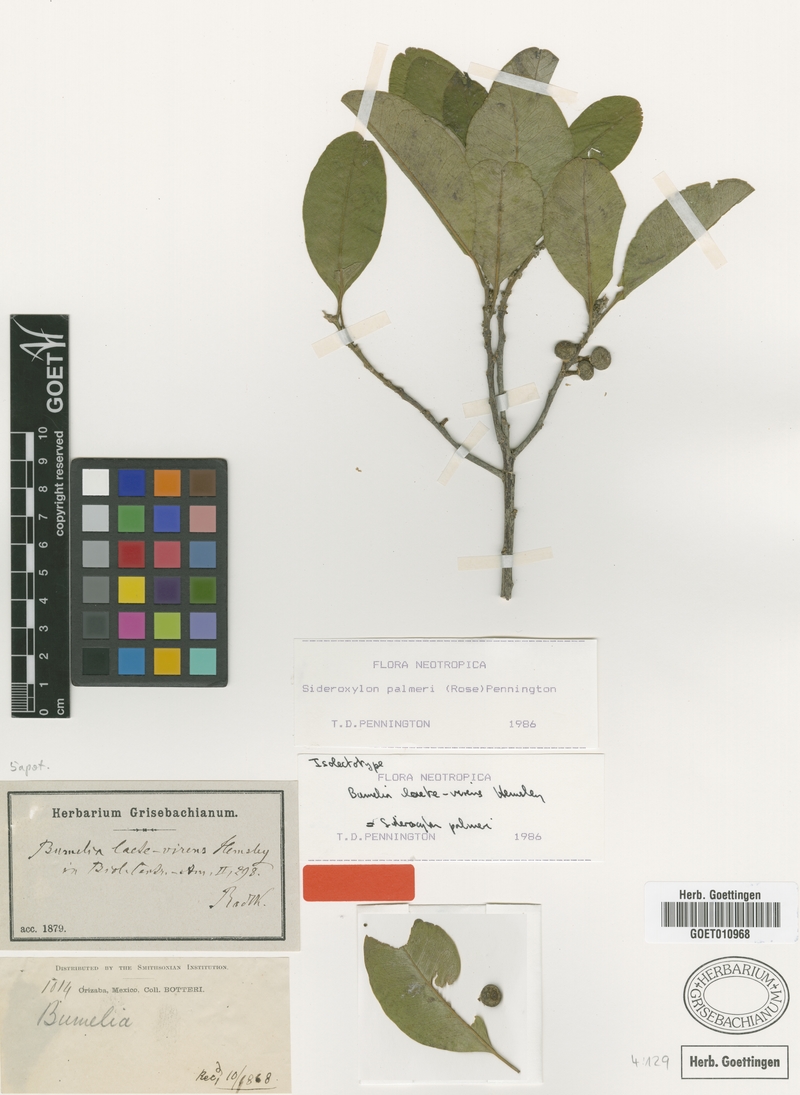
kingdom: Plantae
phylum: Tracheophyta
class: Magnoliopsida
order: Ericales
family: Sapotaceae
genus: Sideroxylon
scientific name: Sideroxylon palmeri
